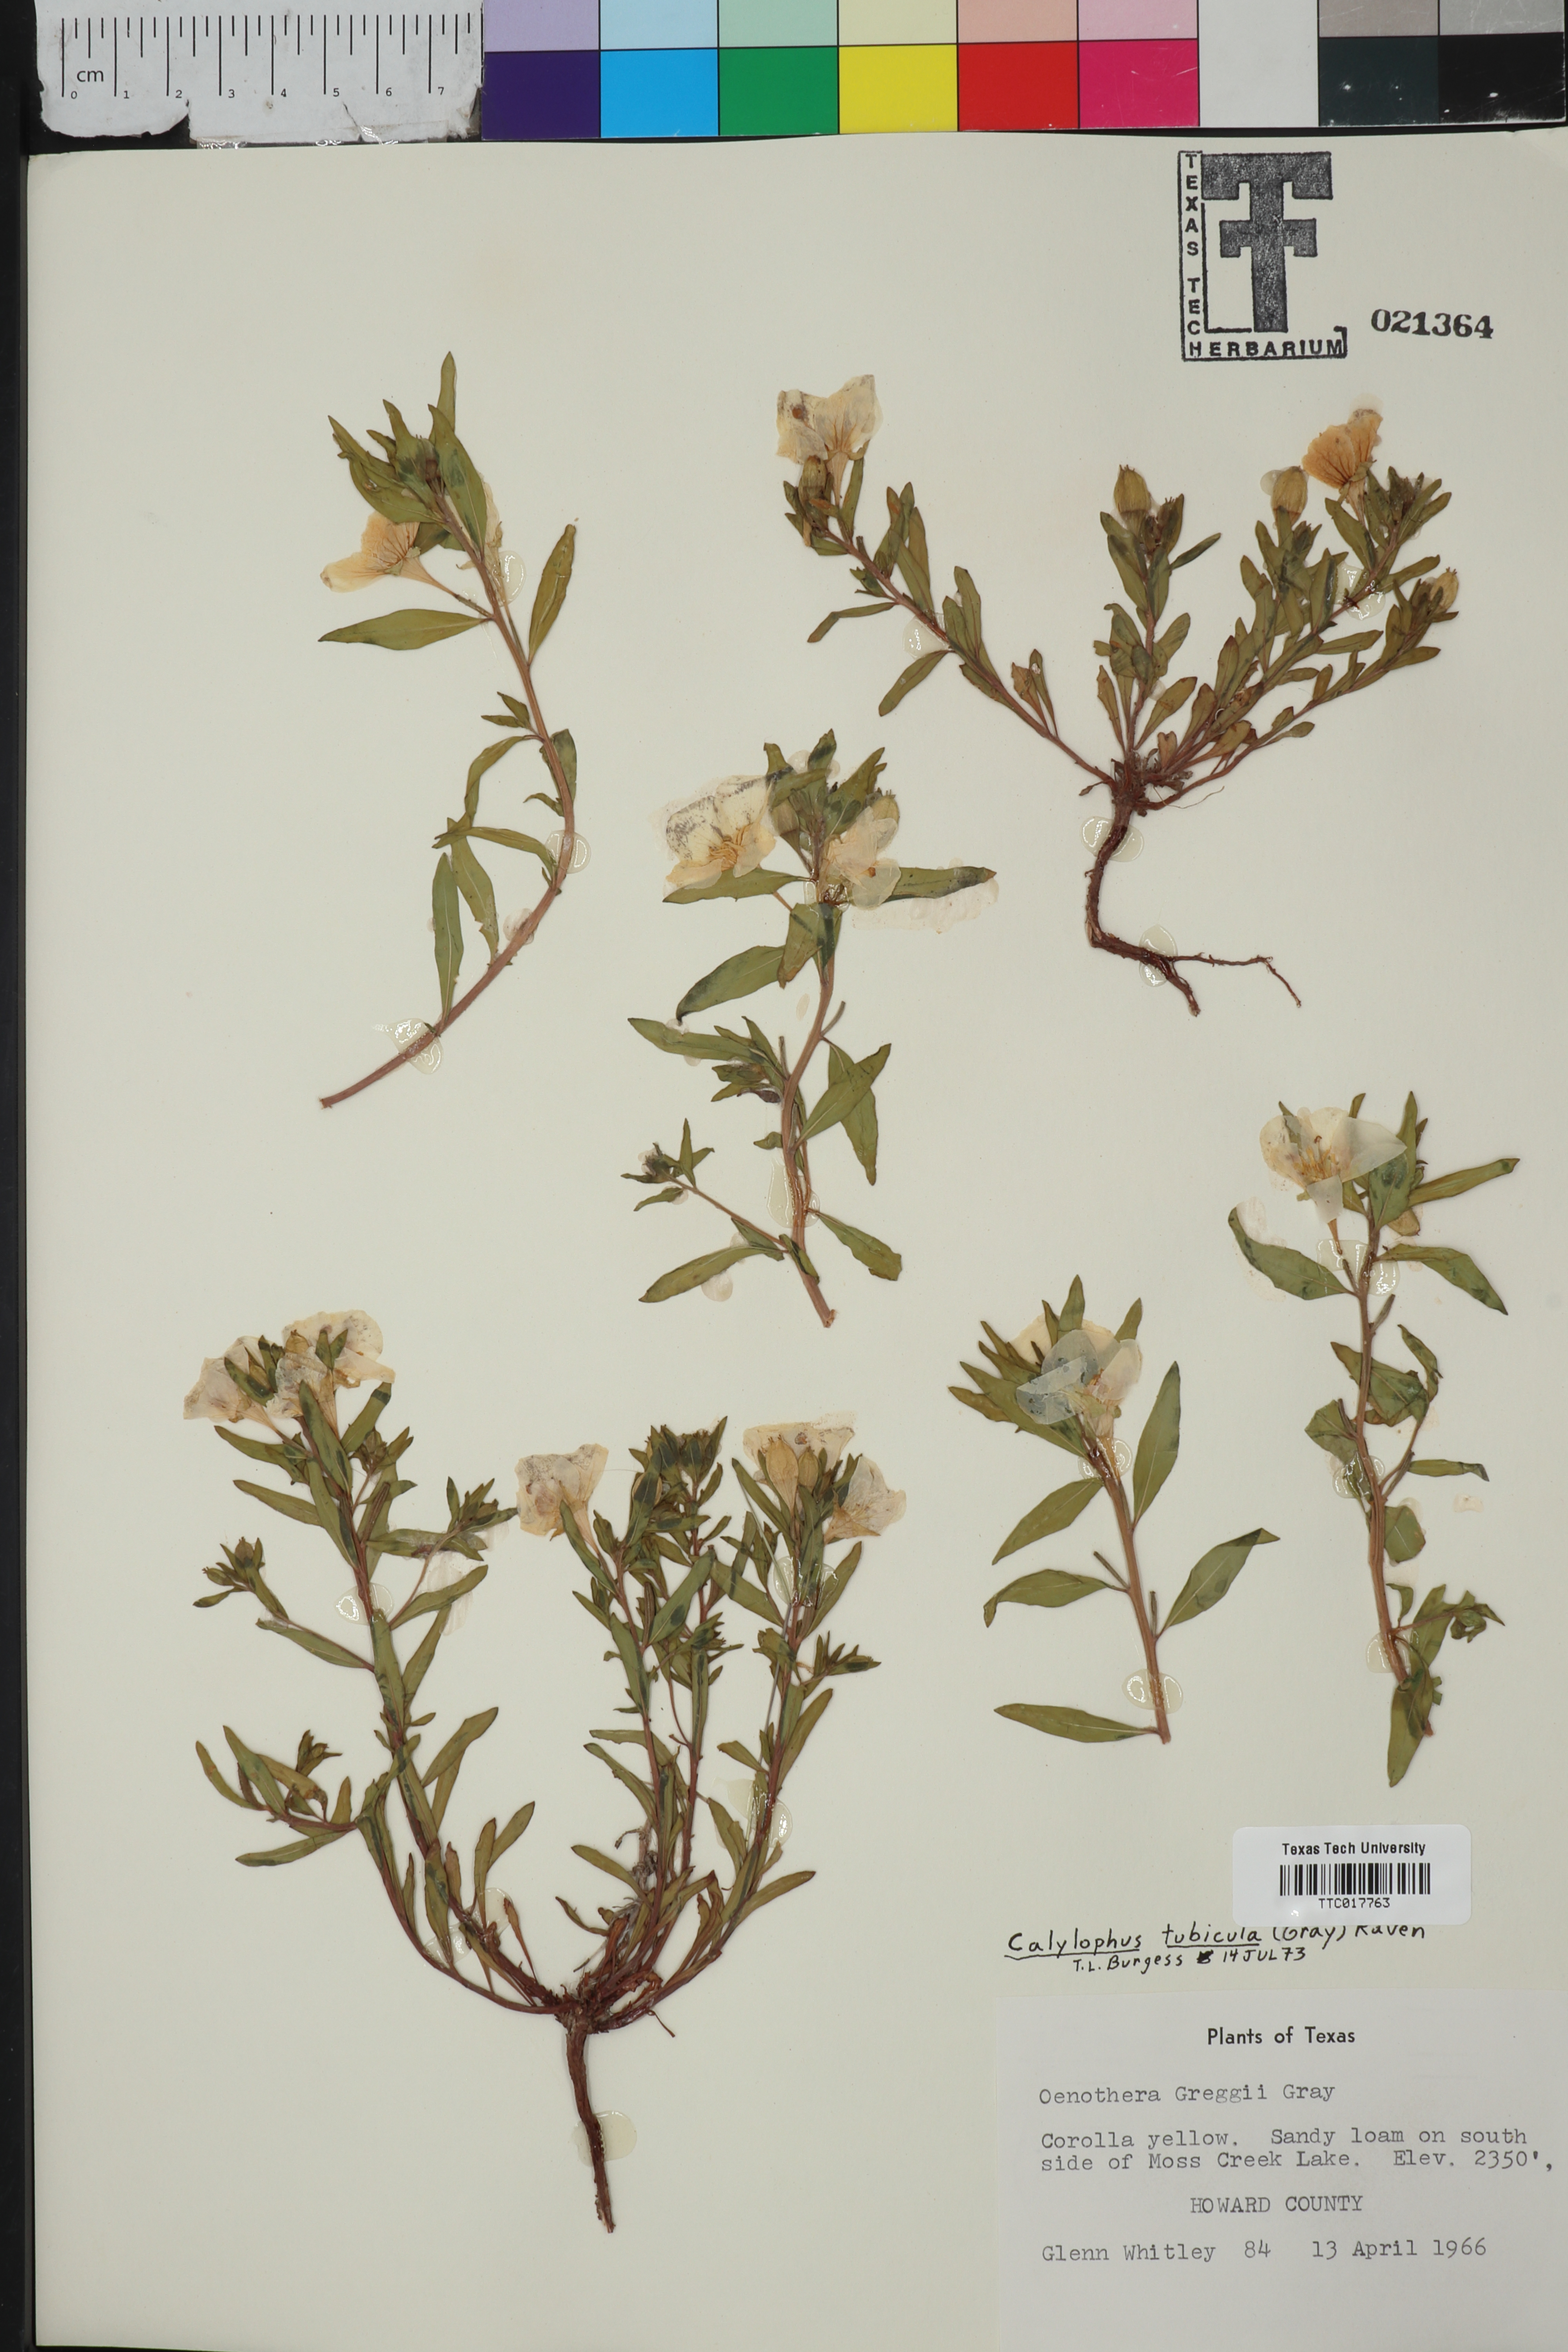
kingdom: Plantae
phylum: Tracheophyta
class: Magnoliopsida
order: Myrtales
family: Onagraceae
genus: Oenothera
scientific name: Oenothera hartwegii
